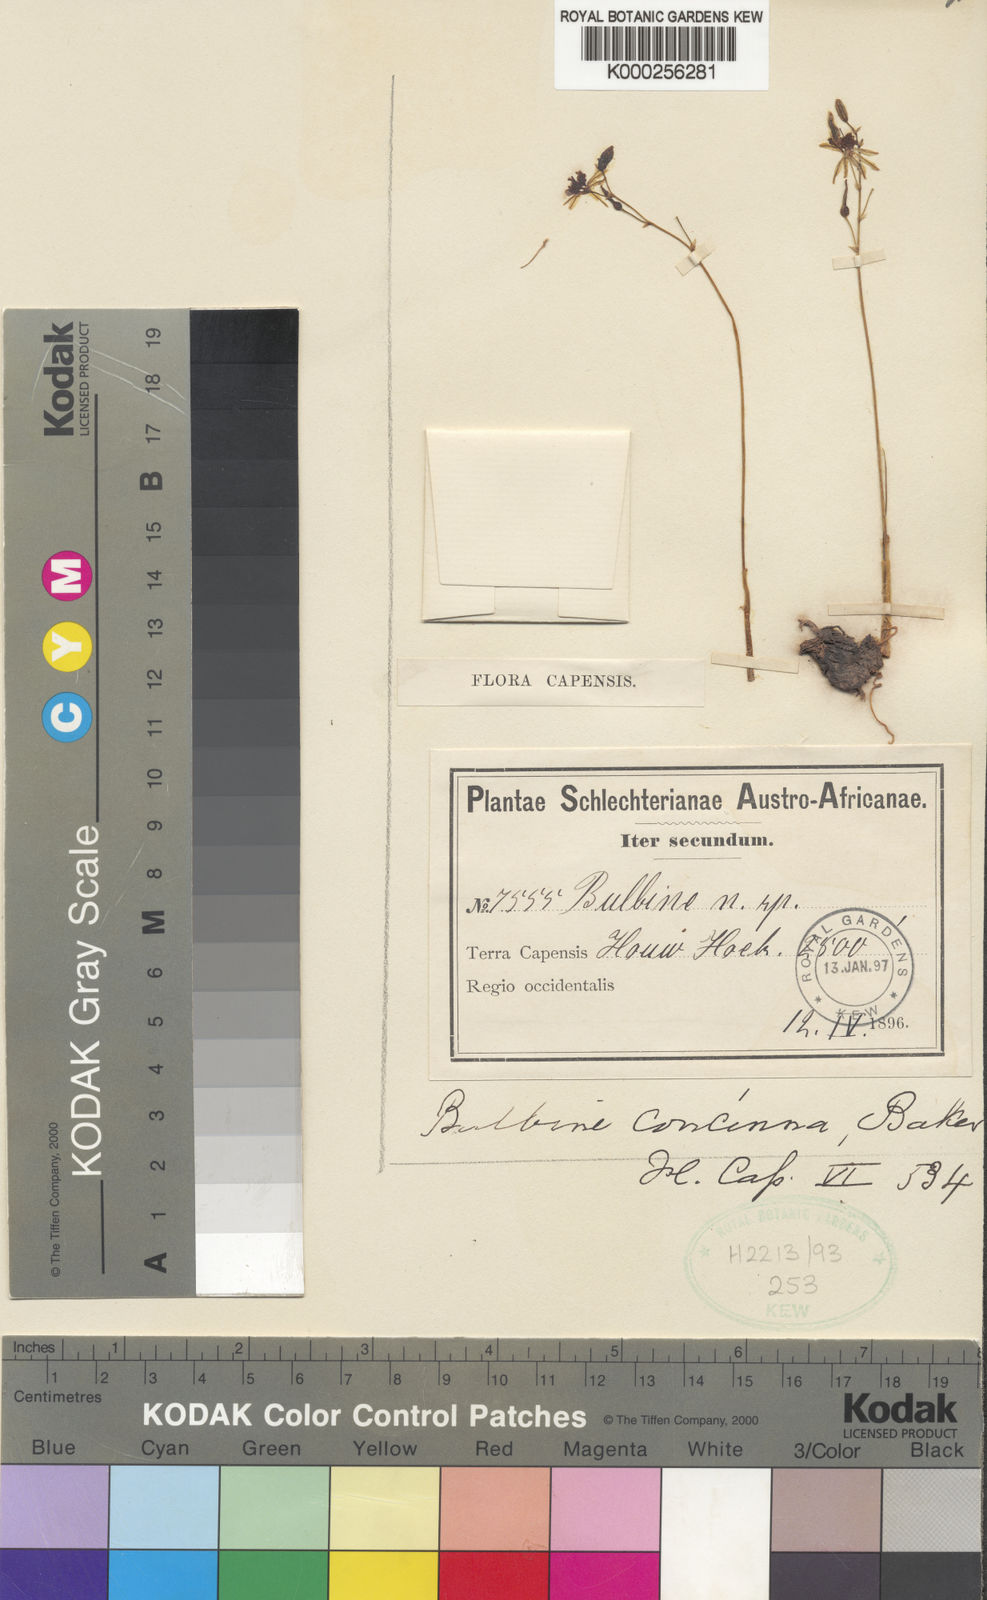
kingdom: Plantae
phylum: Tracheophyta
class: Liliopsida
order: Asparagales
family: Asphodelaceae
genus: Bulbine
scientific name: Bulbine minima
